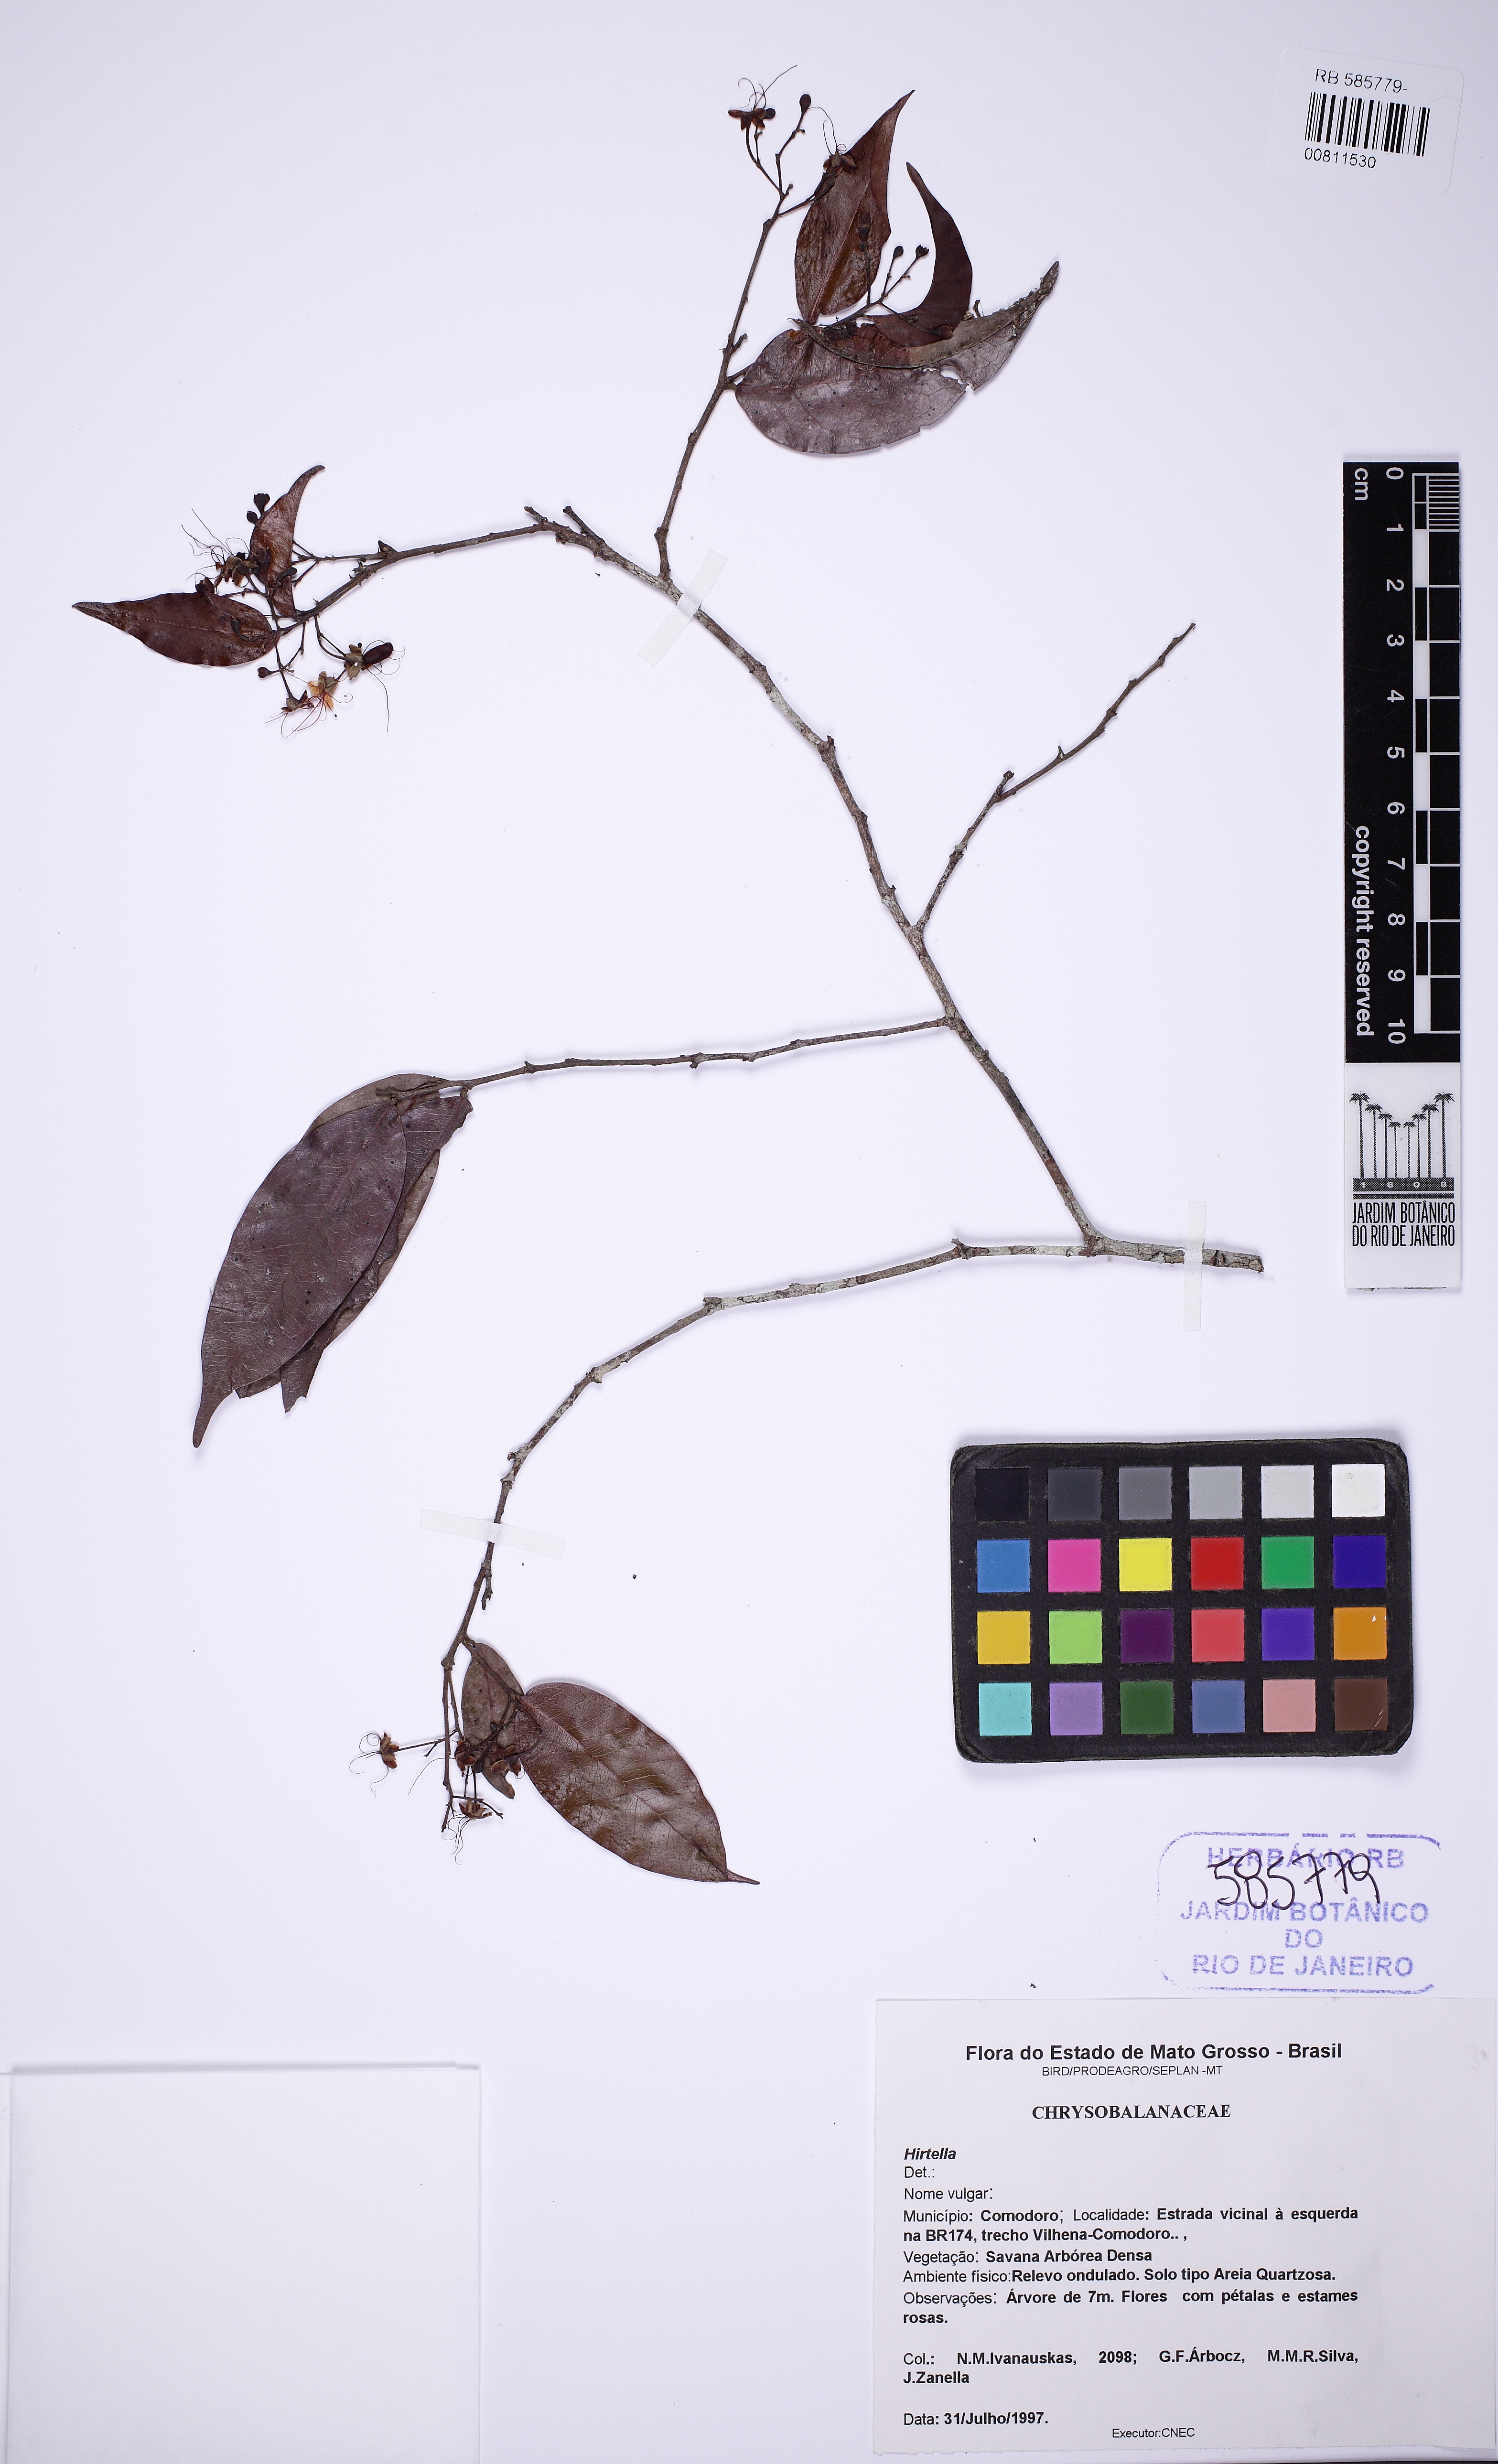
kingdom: Plantae
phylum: Tracheophyta
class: Magnoliopsida
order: Malpighiales
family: Chrysobalanaceae
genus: Hirtella
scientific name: Hirtella bicornis
